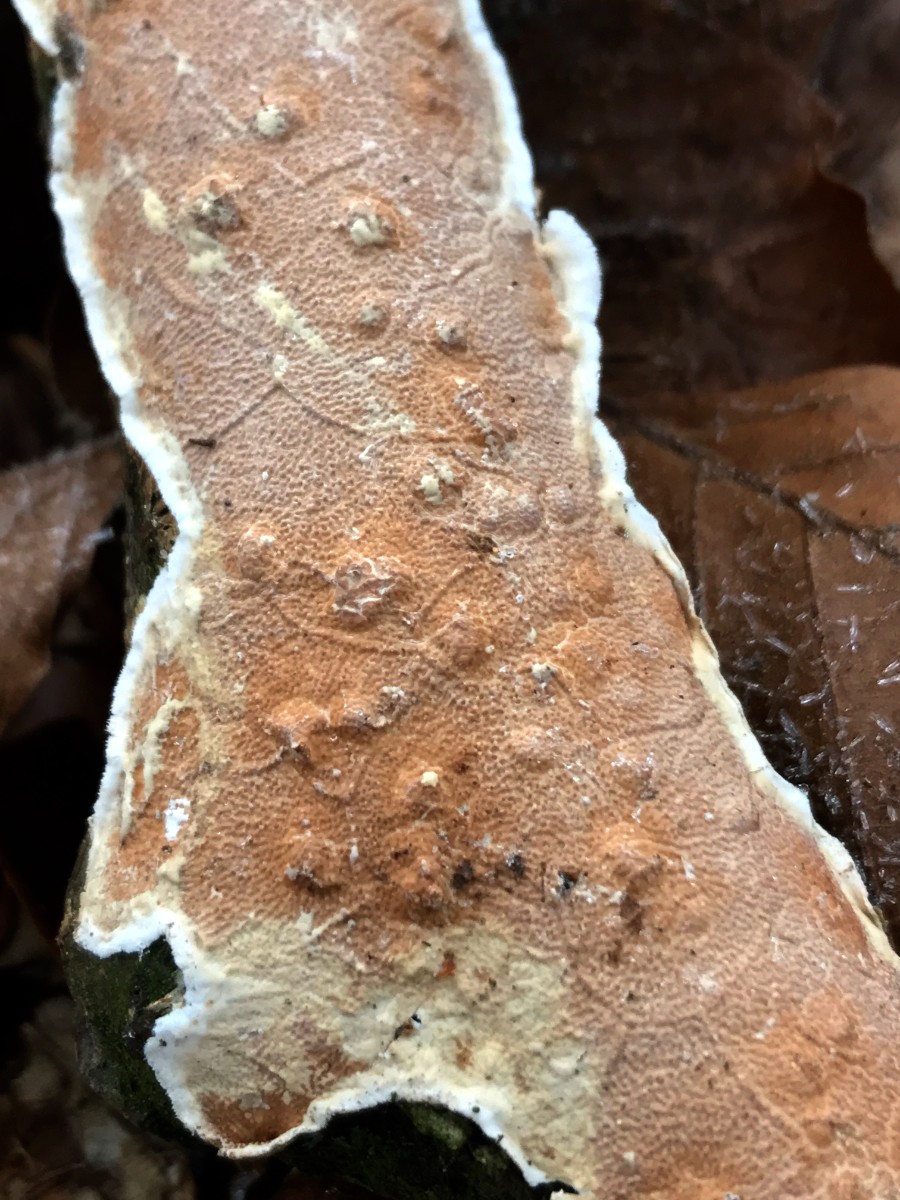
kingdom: Fungi
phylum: Basidiomycota
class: Agaricomycetes
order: Polyporales
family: Irpicaceae
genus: Byssomerulius
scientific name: Byssomerulius corium
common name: læder-åresvamp
